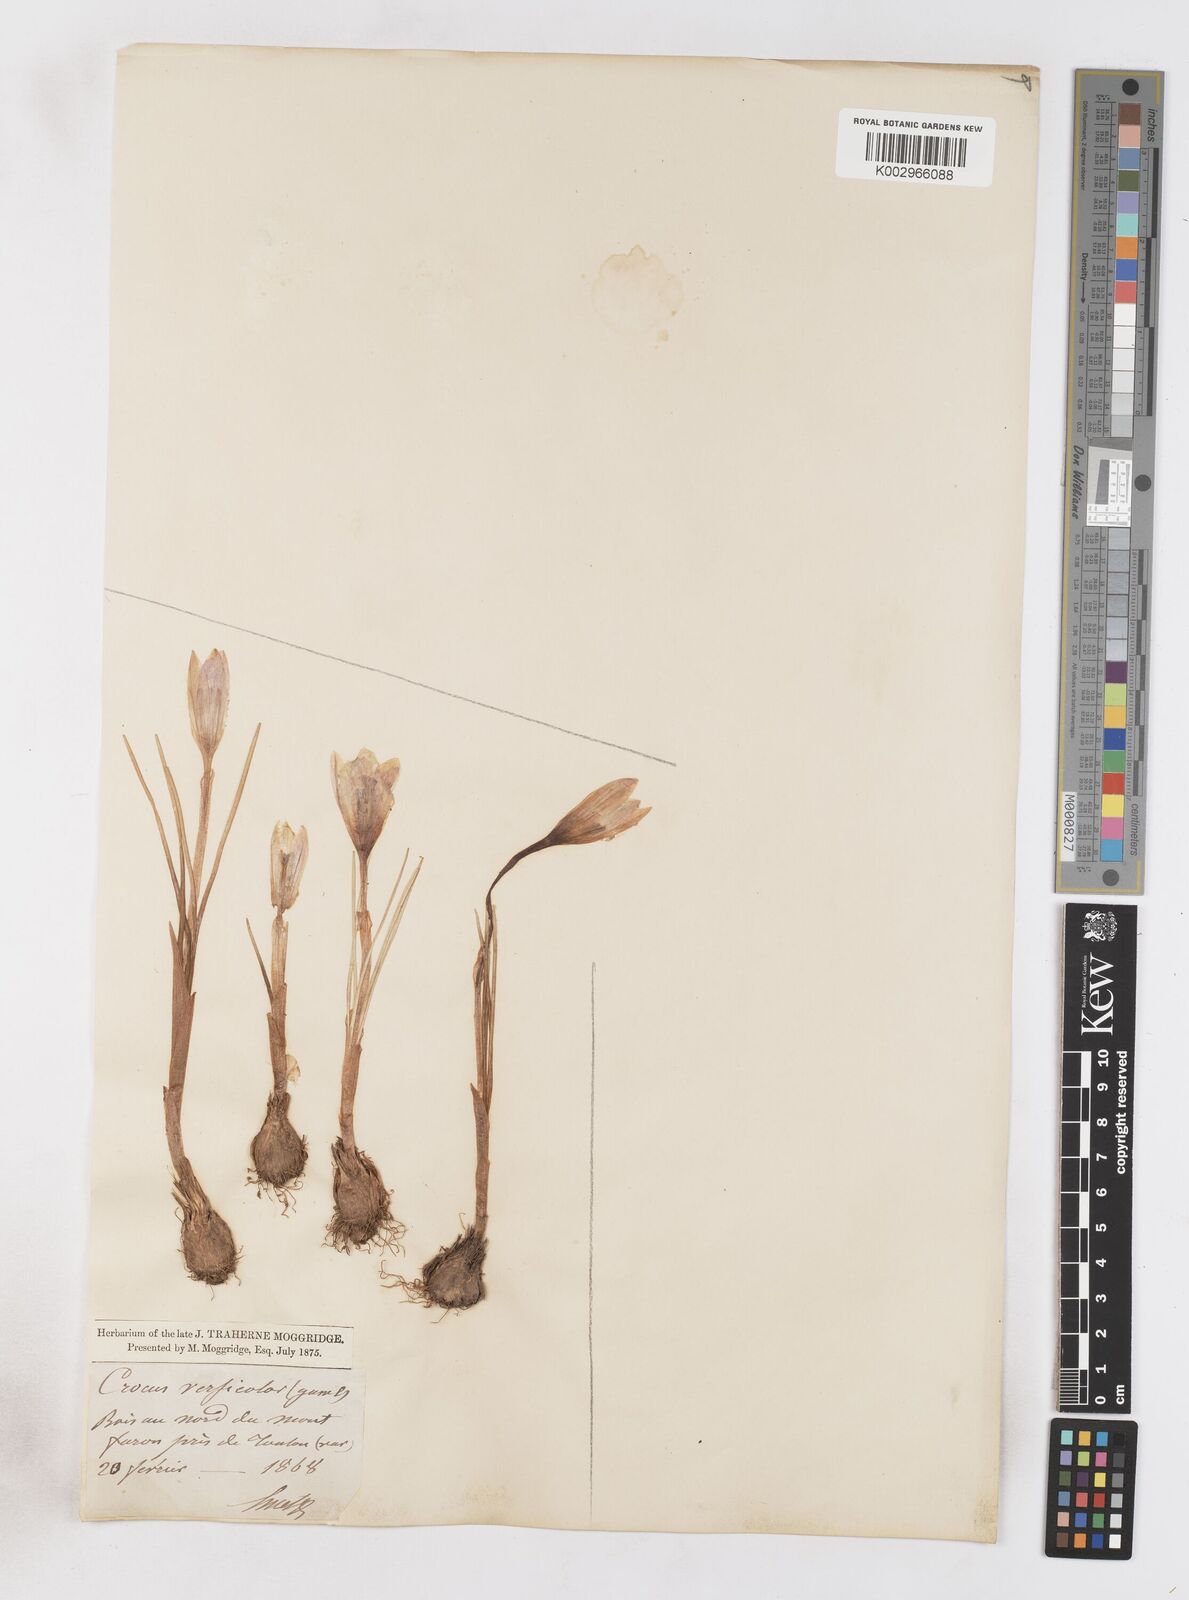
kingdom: Plantae
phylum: Tracheophyta
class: Liliopsida
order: Asparagales
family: Iridaceae
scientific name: Iridaceae
